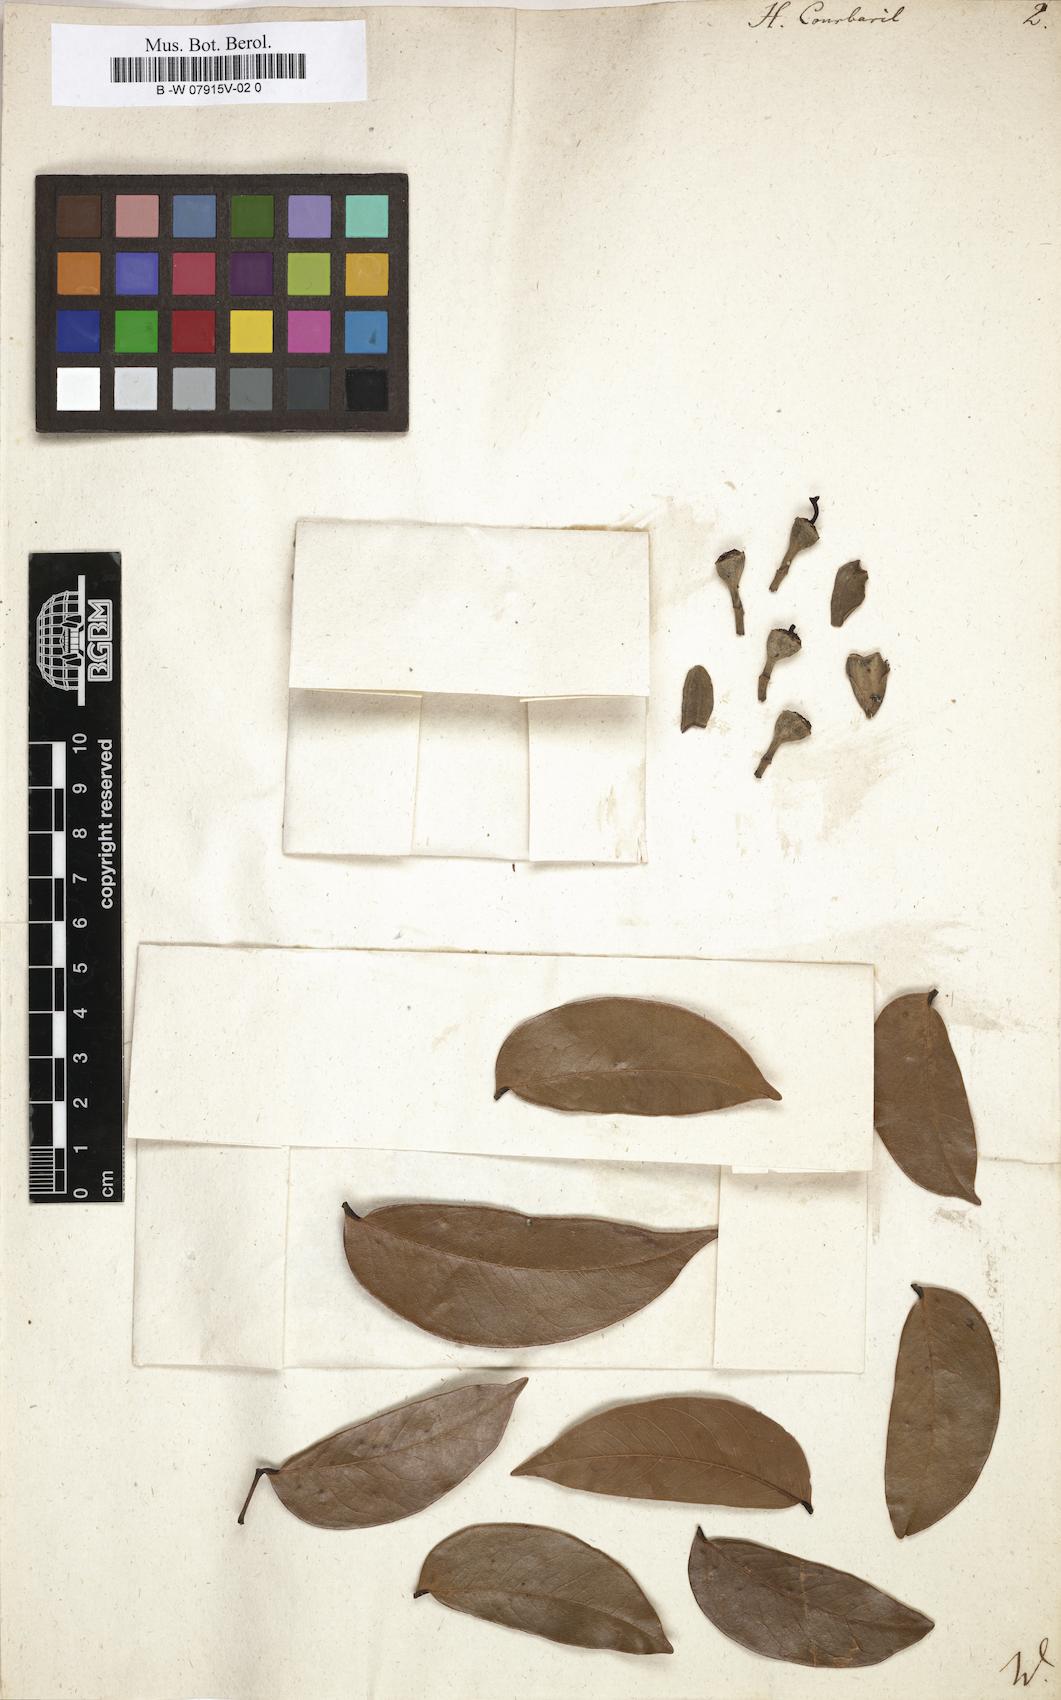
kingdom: Plantae
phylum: Tracheophyta
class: Magnoliopsida
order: Fabales
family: Fabaceae
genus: Hymenaea
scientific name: Hymenaea courbaril
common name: Brazilian copal
